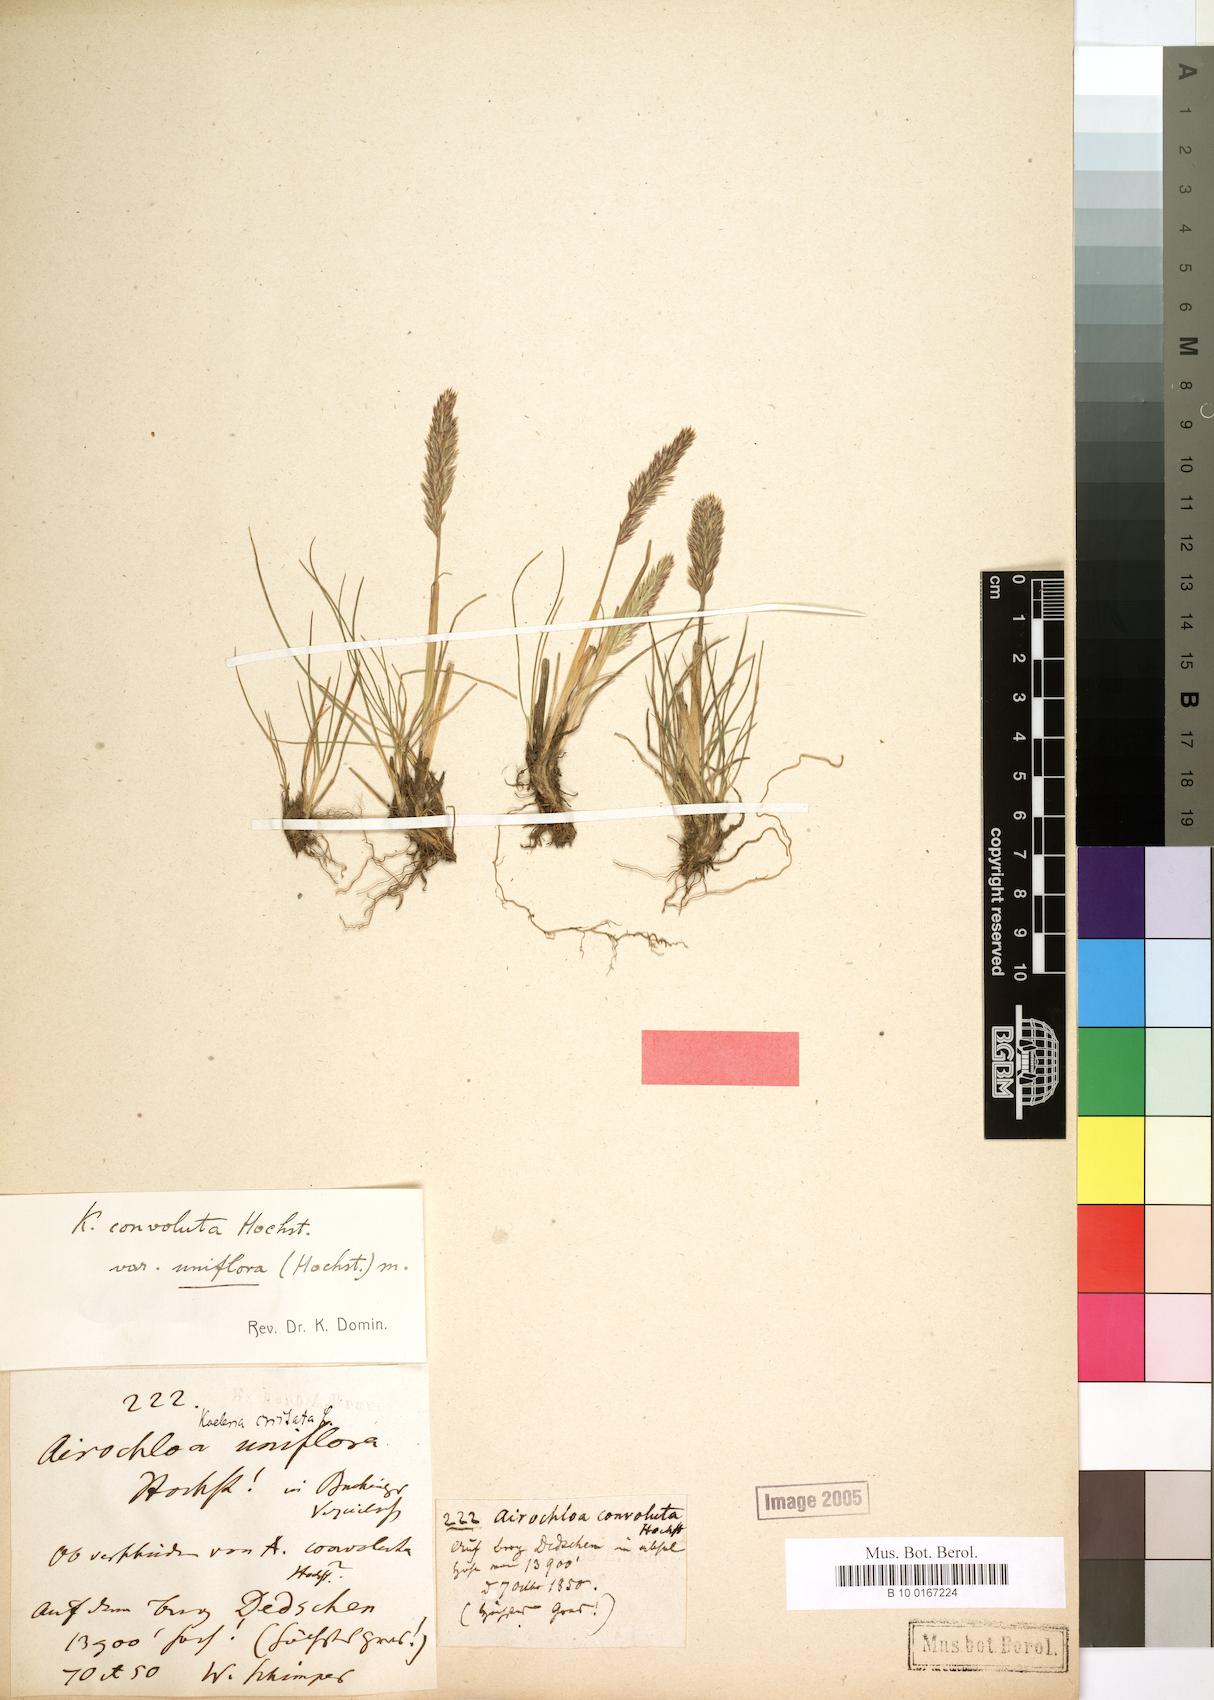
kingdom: Plantae
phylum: Tracheophyta
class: Liliopsida
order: Poales
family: Poaceae
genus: Koeleria
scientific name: Koeleria capensis
